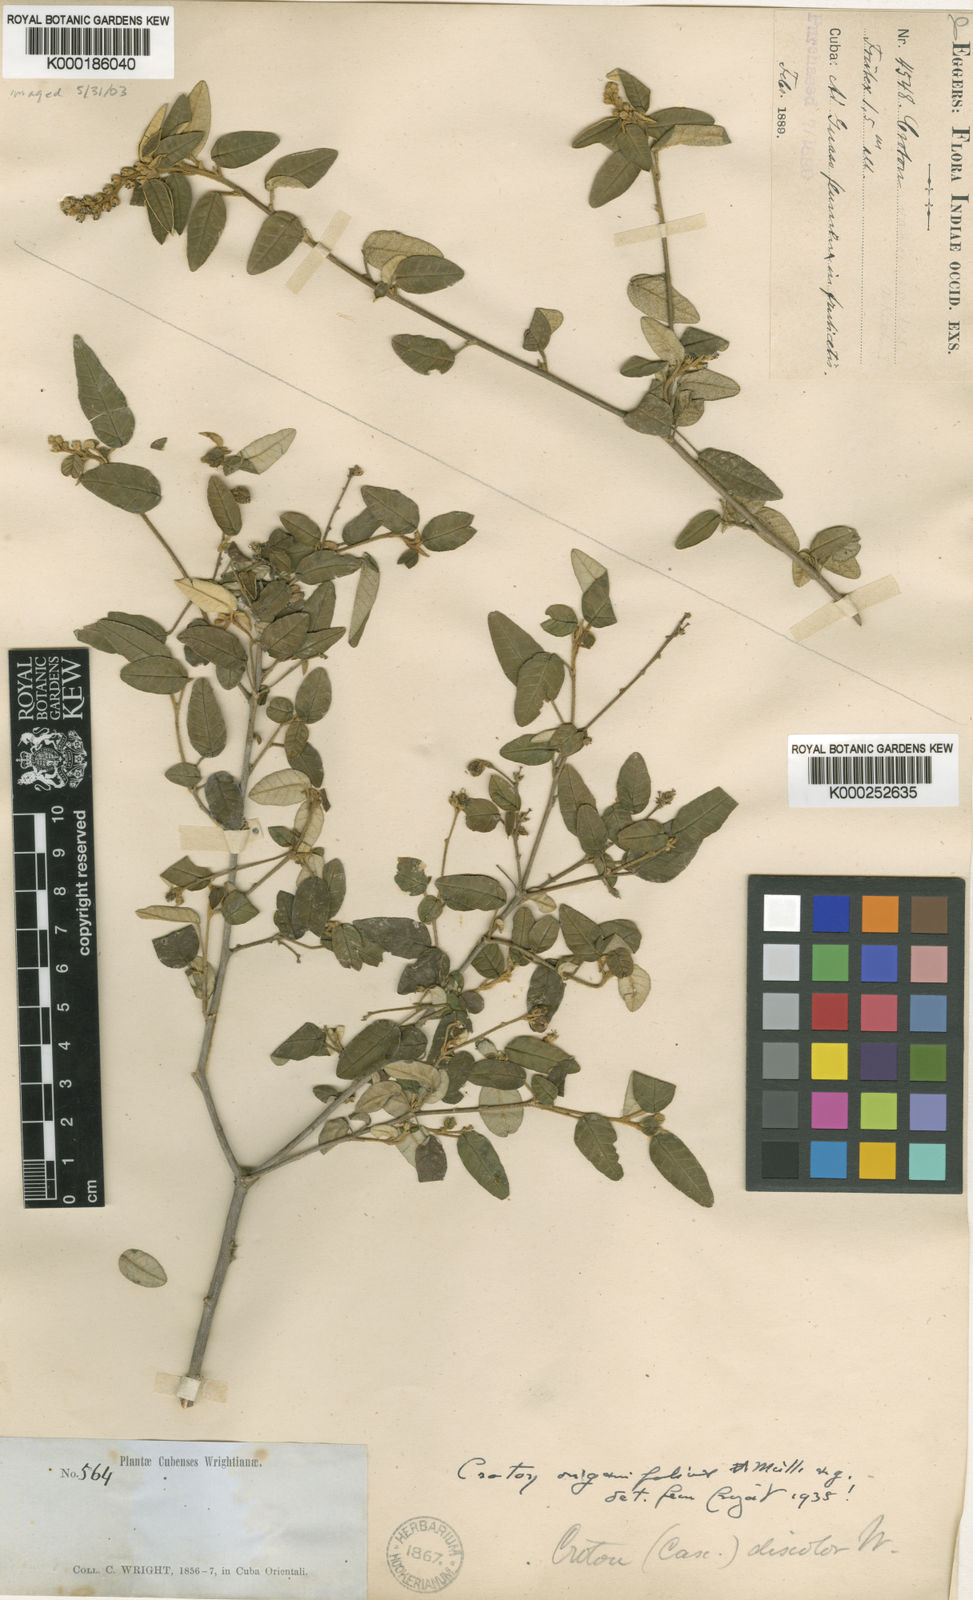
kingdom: Plantae
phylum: Tracheophyta
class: Magnoliopsida
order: Malpighiales
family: Euphorbiaceae
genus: Croton
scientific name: Croton origanifolius
